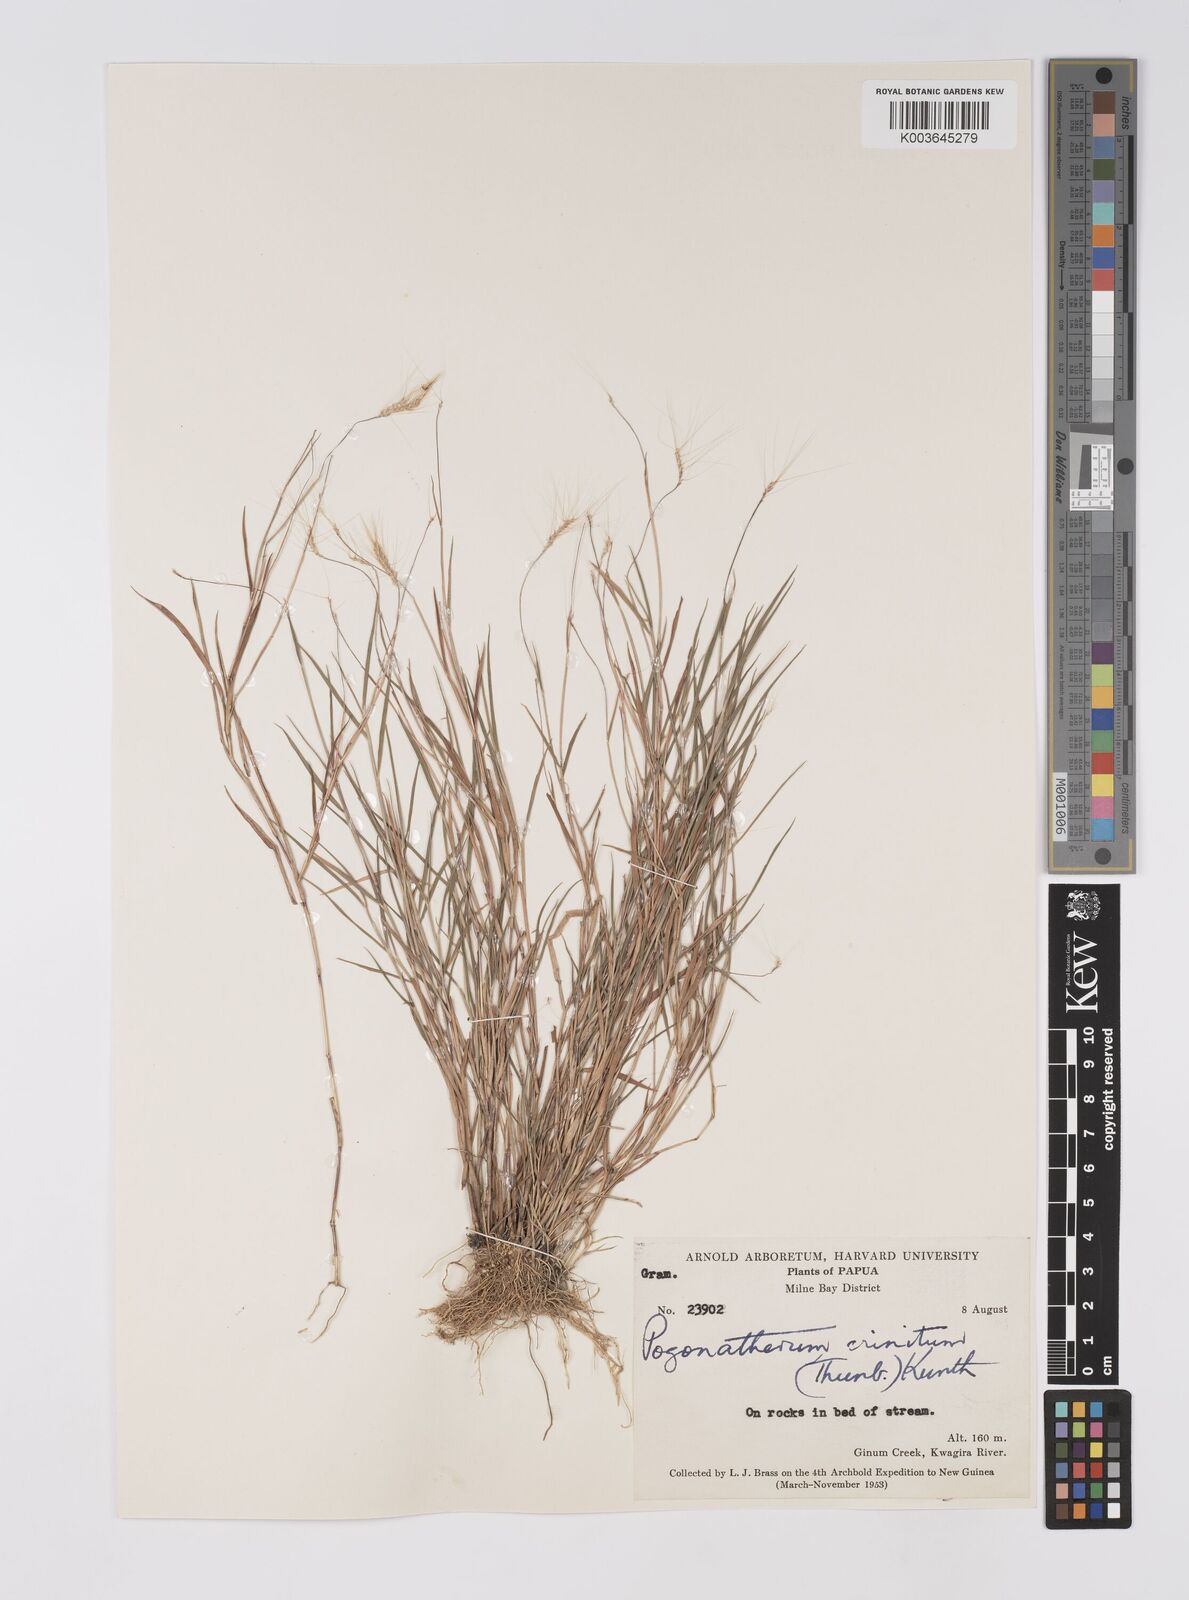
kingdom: Plantae
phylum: Tracheophyta
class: Liliopsida
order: Poales
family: Poaceae
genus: Pogonatherum
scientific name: Pogonatherum crinitum
